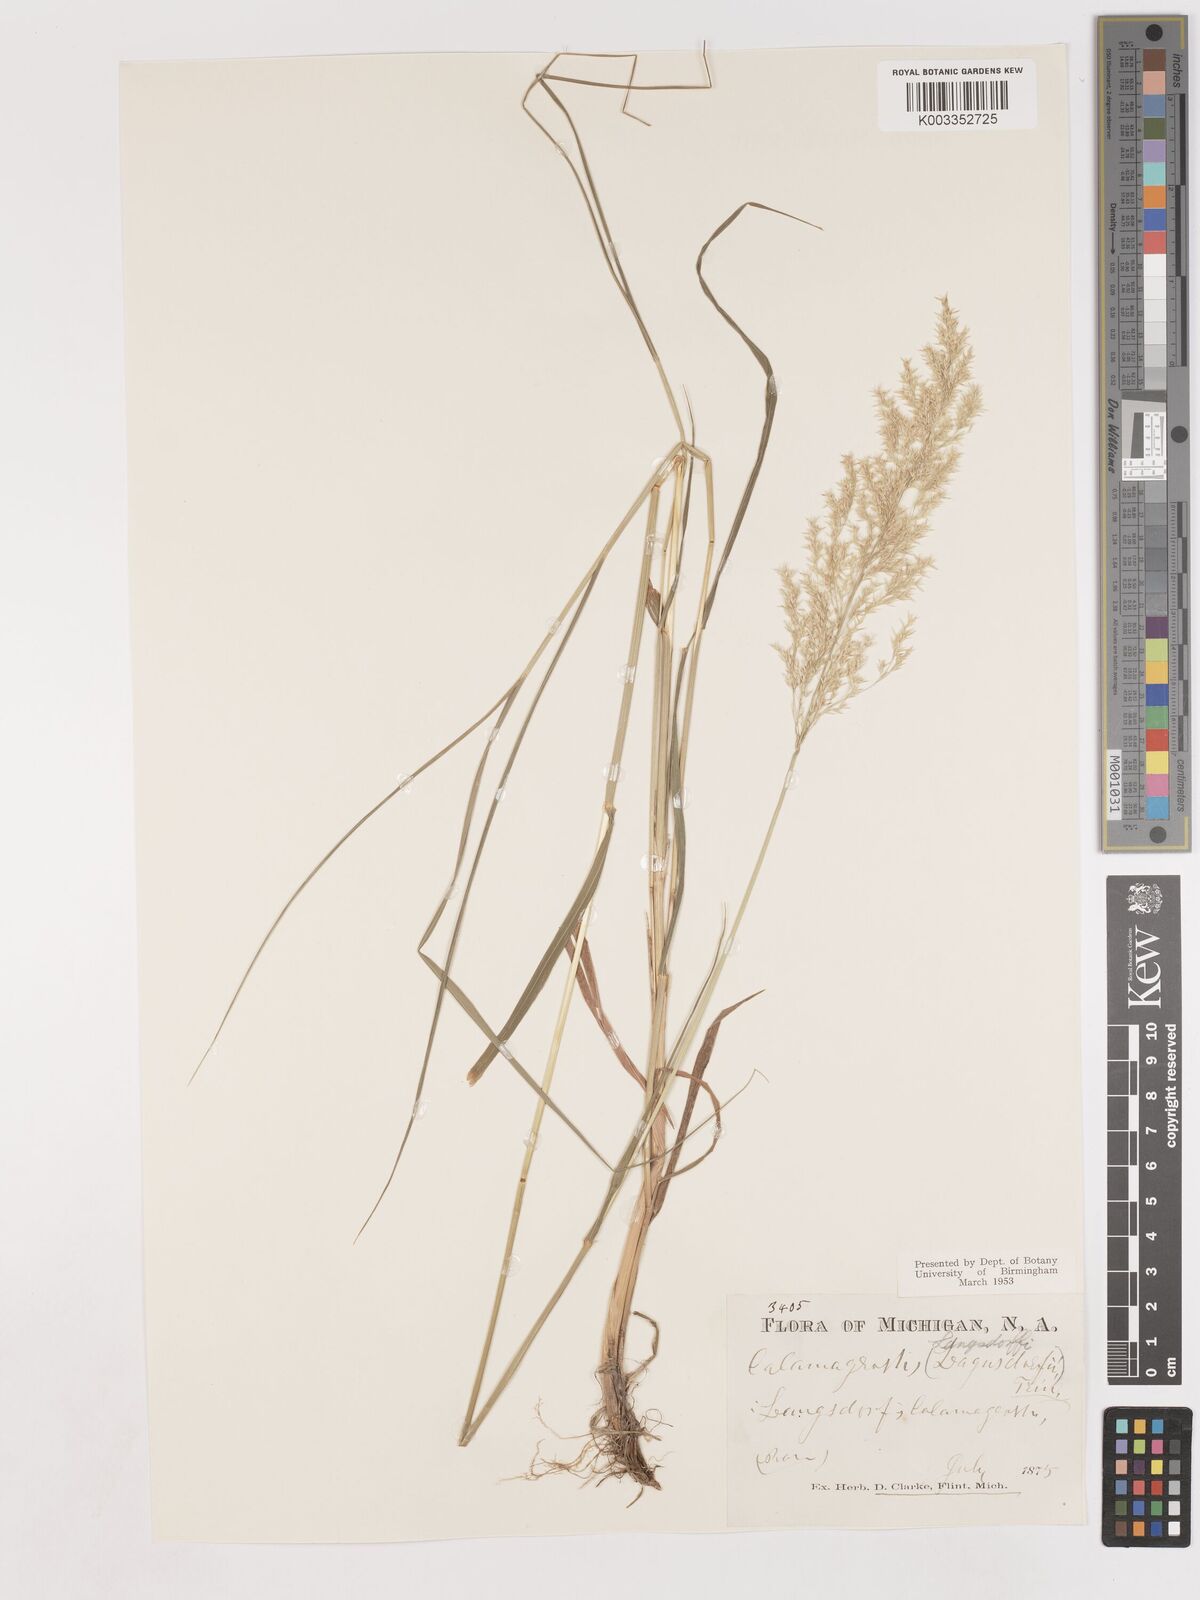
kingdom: Plantae
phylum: Tracheophyta
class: Liliopsida
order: Poales
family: Poaceae
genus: Calamagrostis
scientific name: Calamagrostis canadensis
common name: Canada bluejoint
